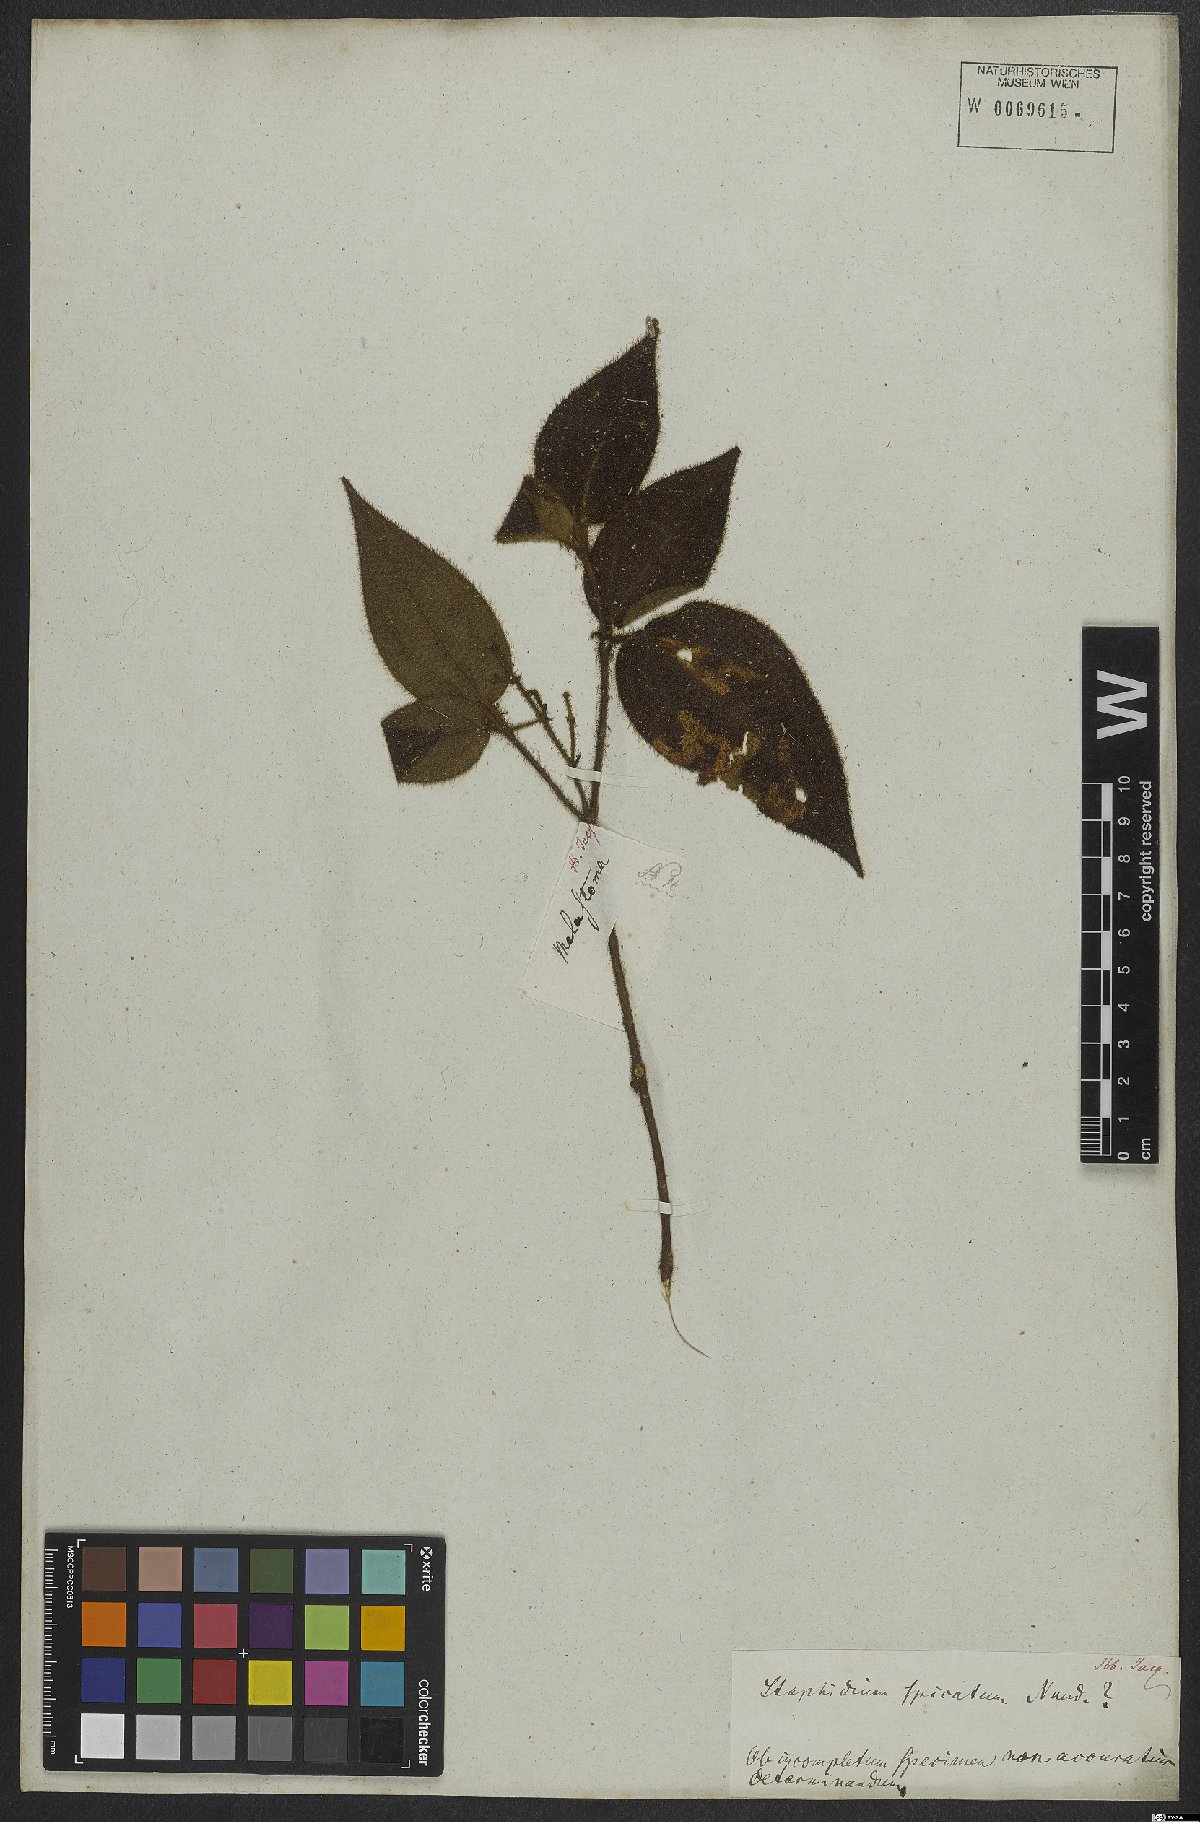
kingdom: Plantae
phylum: Tracheophyta
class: Magnoliopsida
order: Myrtales
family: Melastomataceae
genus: Miconia
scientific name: Miconia dependens
